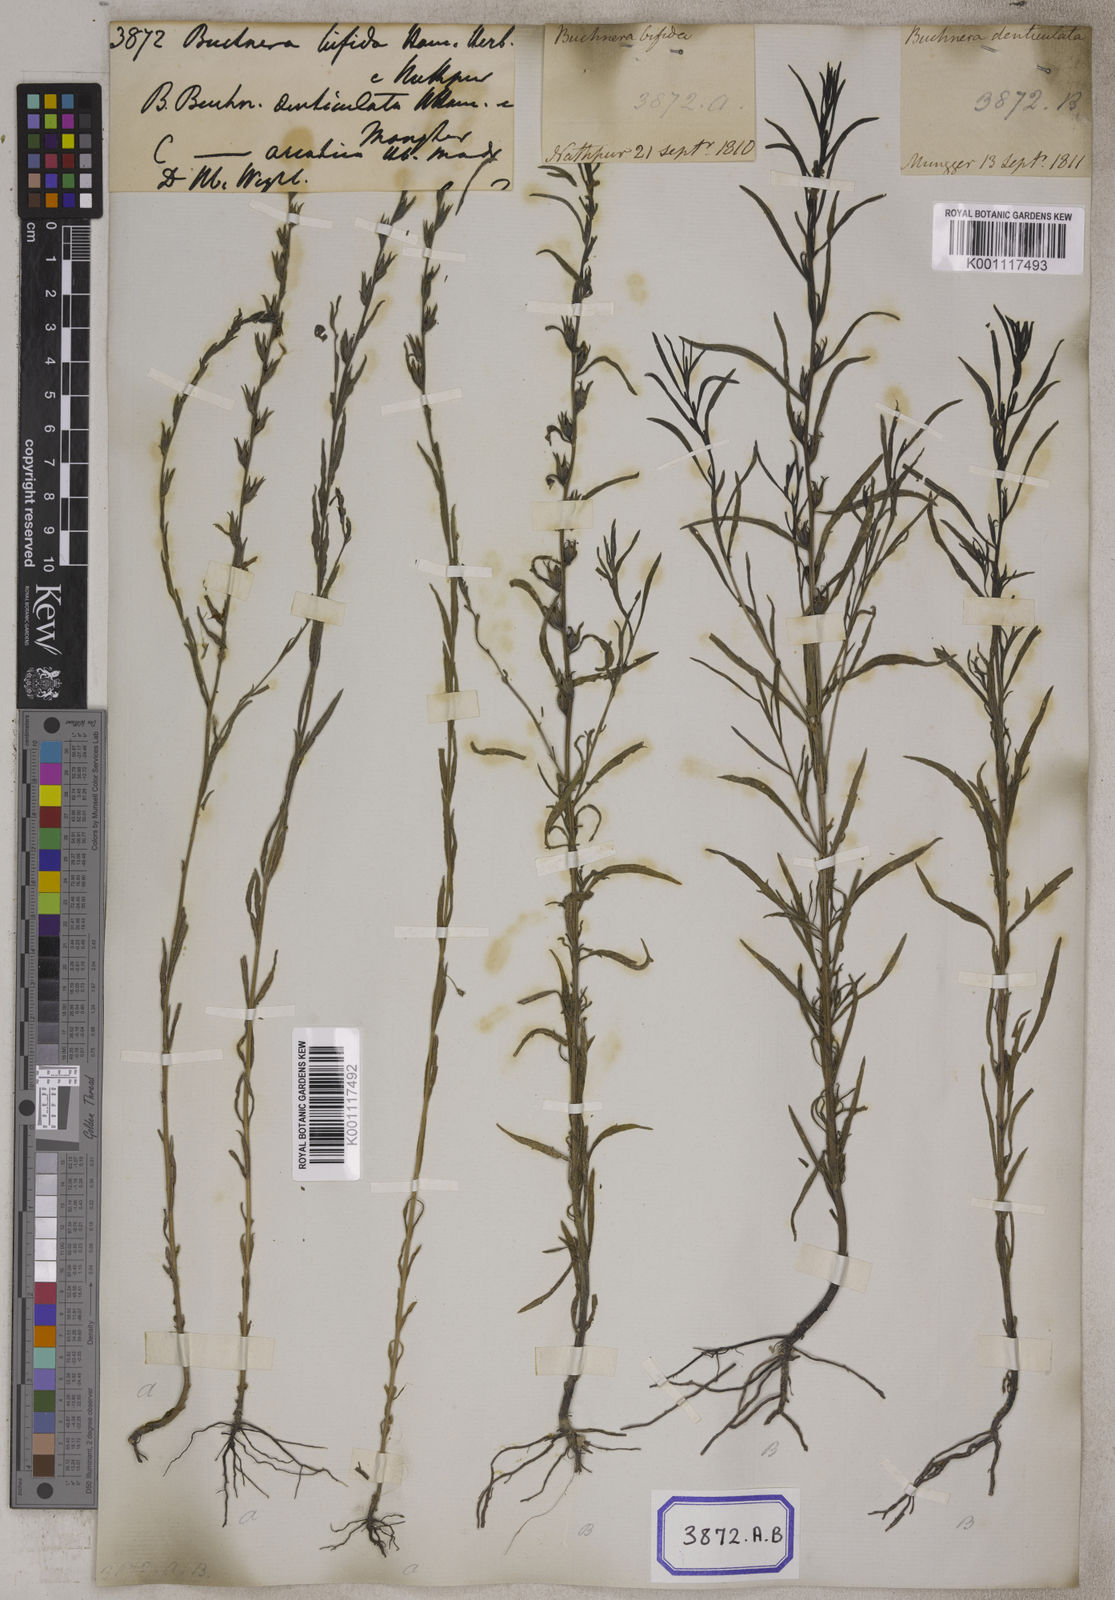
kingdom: Plantae
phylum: Tracheophyta
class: Magnoliopsida
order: Lamiales
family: Orobanchaceae
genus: Striga
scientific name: Striga angustifolia
